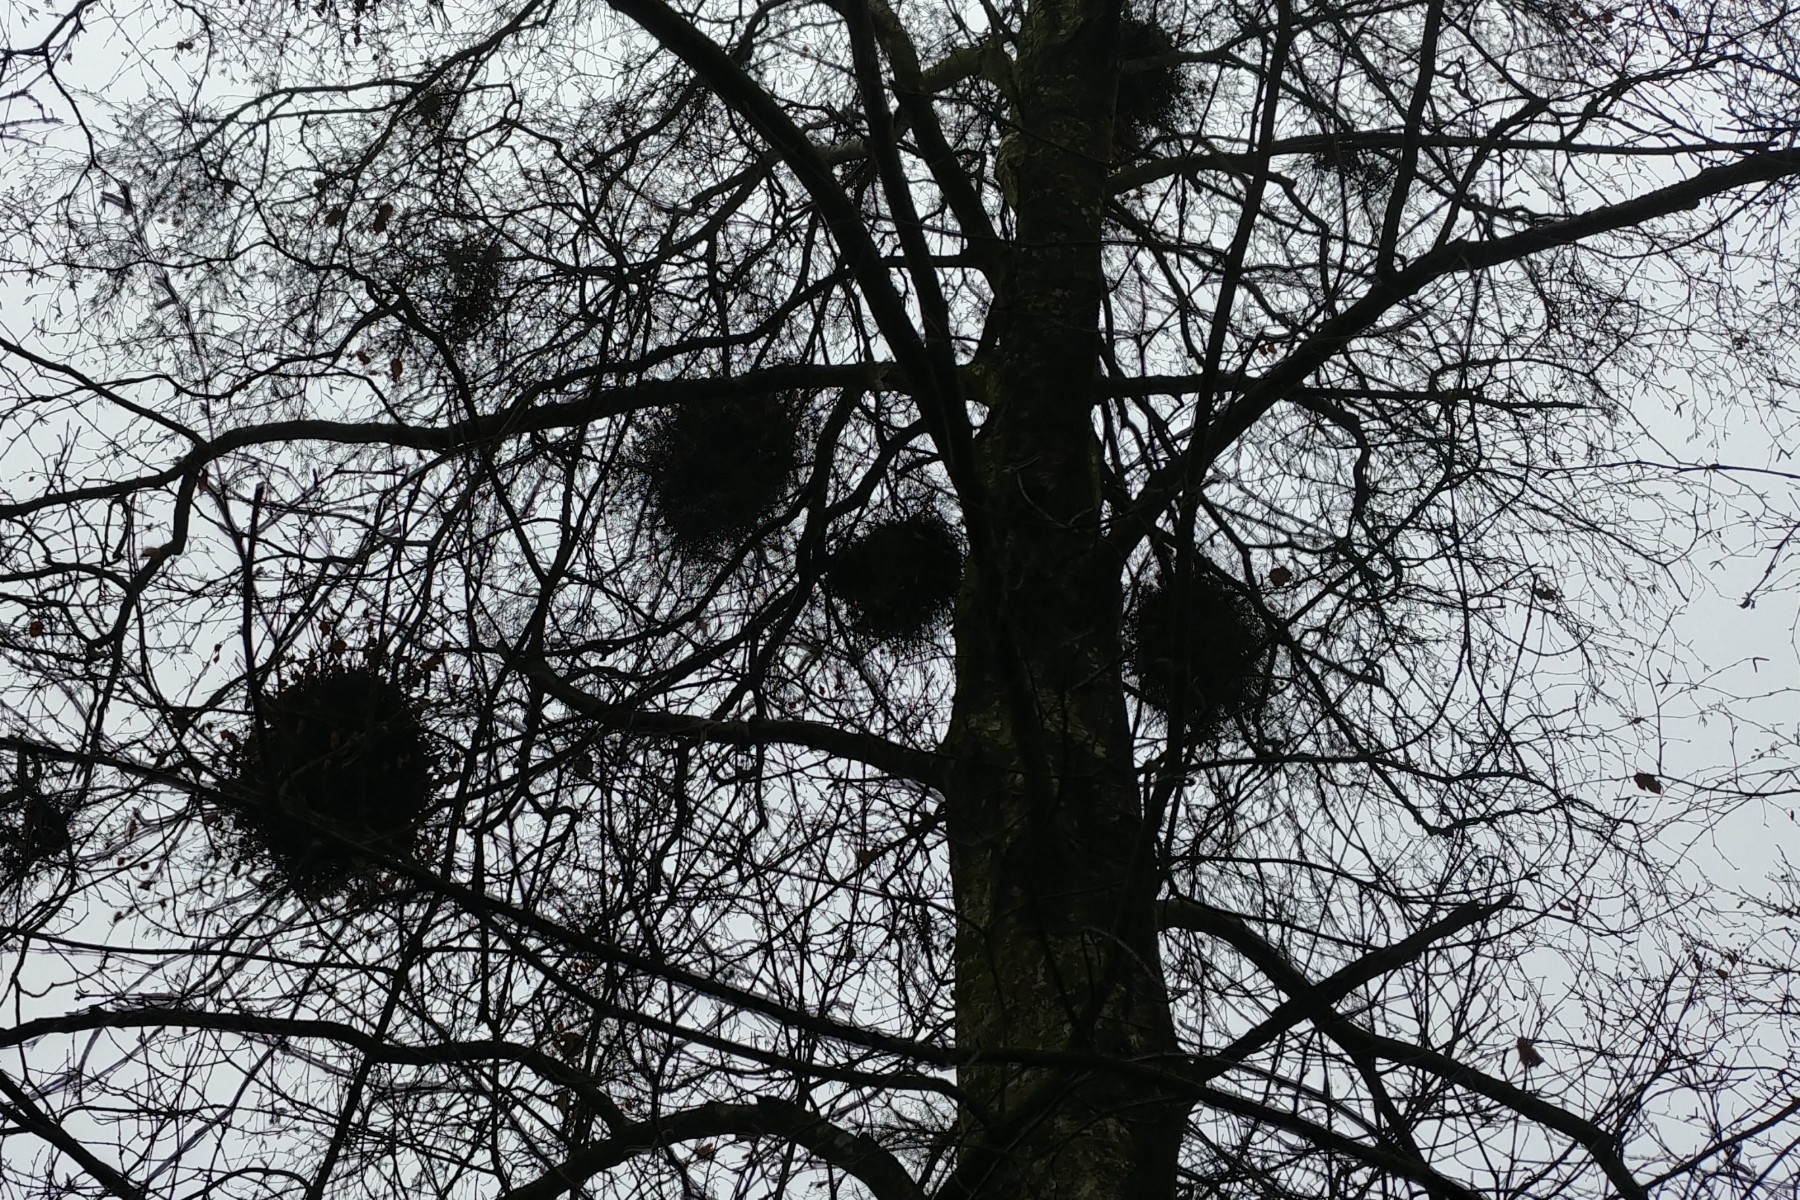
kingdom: Fungi
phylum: Ascomycota
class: Taphrinomycetes
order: Taphrinales
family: Taphrinaceae
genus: Taphrina
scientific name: Taphrina betulina
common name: hekse-sækdug
